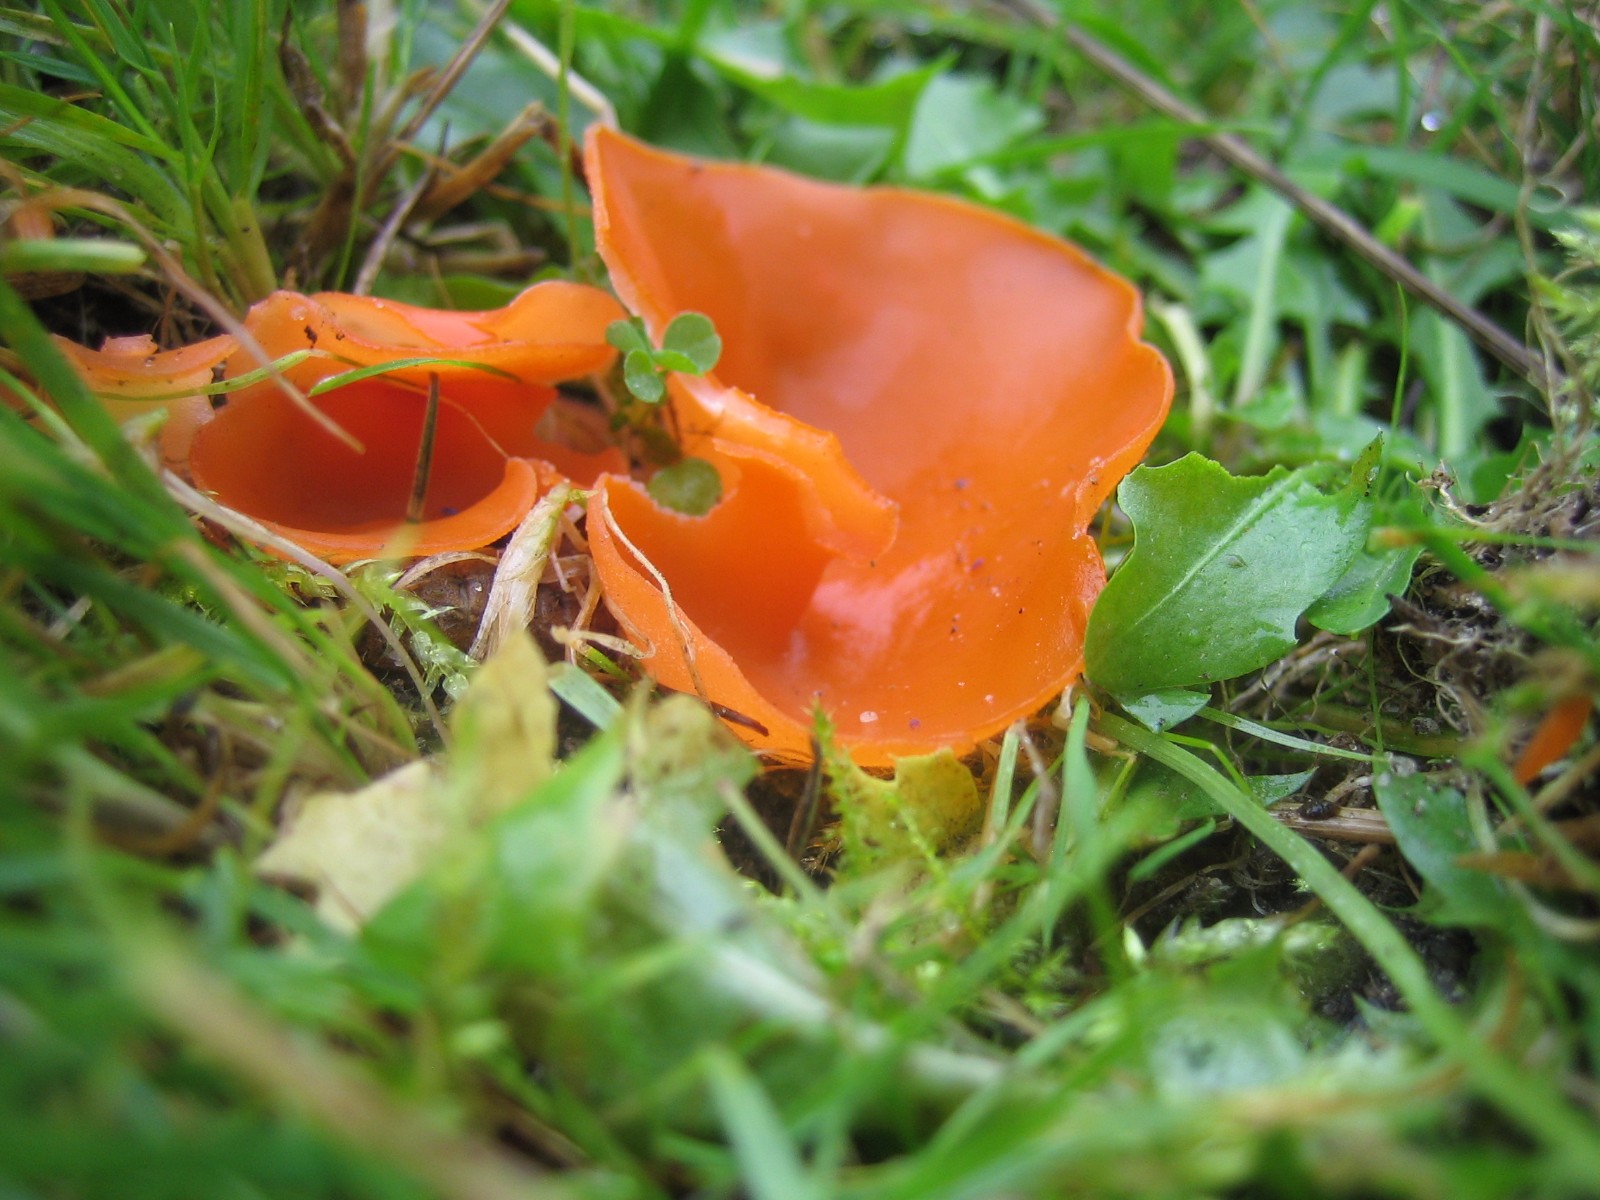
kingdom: Fungi
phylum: Ascomycota
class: Pezizomycetes
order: Pezizales
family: Pyronemataceae
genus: Aleuria
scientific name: Aleuria aurantia
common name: almindelig orangebæger
